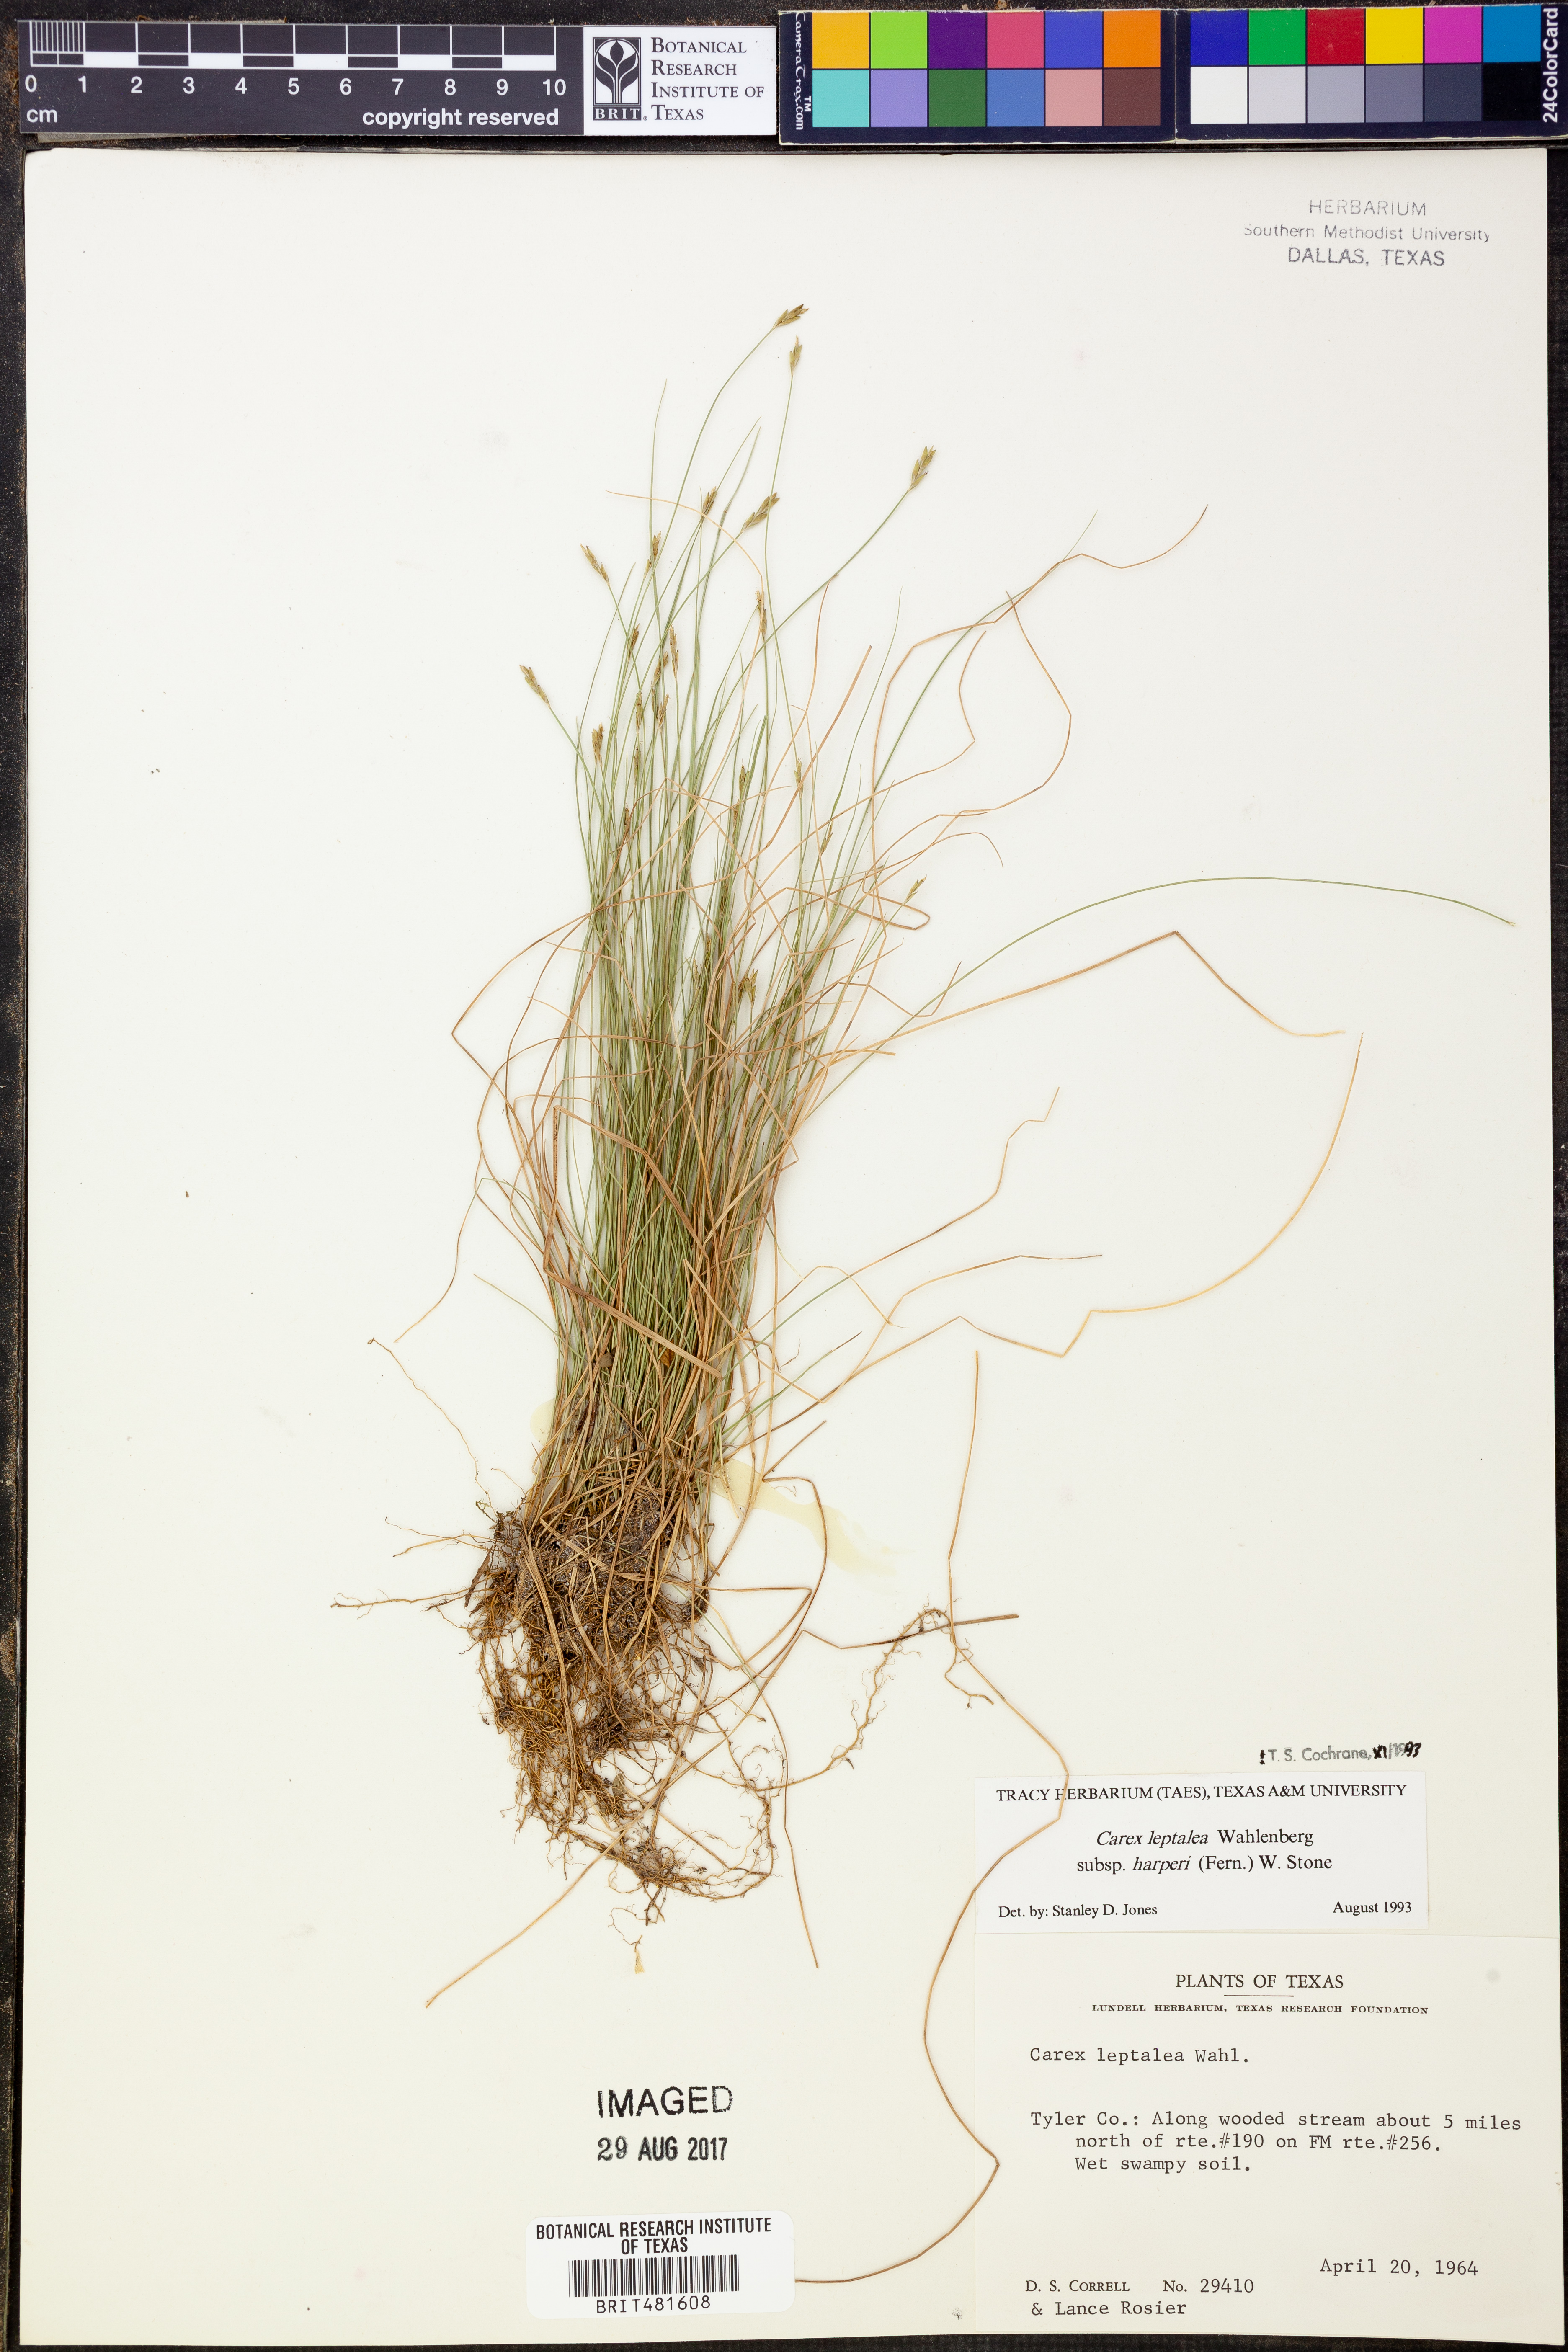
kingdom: Plantae
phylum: Tracheophyta
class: Liliopsida
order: Poales
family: Cyperaceae
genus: Carex
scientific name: Carex leptalea
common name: Bristly-stalked sedge
